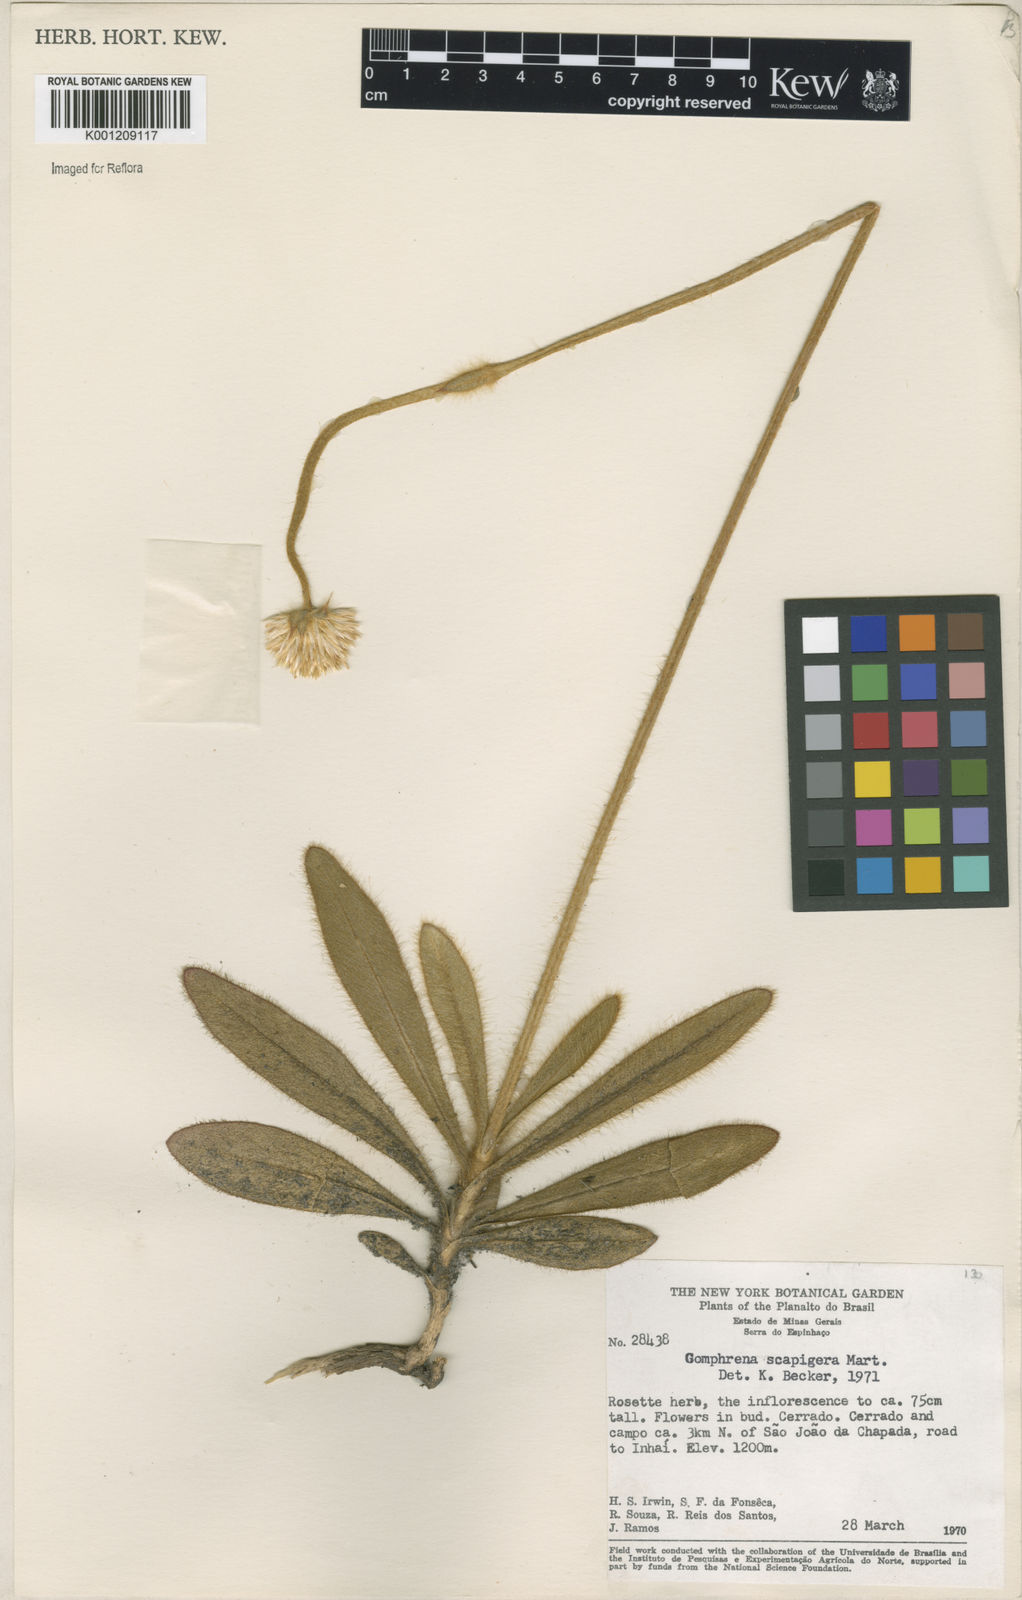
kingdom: Plantae
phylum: Tracheophyta
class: Magnoliopsida
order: Caryophyllales
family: Amaranthaceae
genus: Gomphrena
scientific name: Gomphrena scapigera
